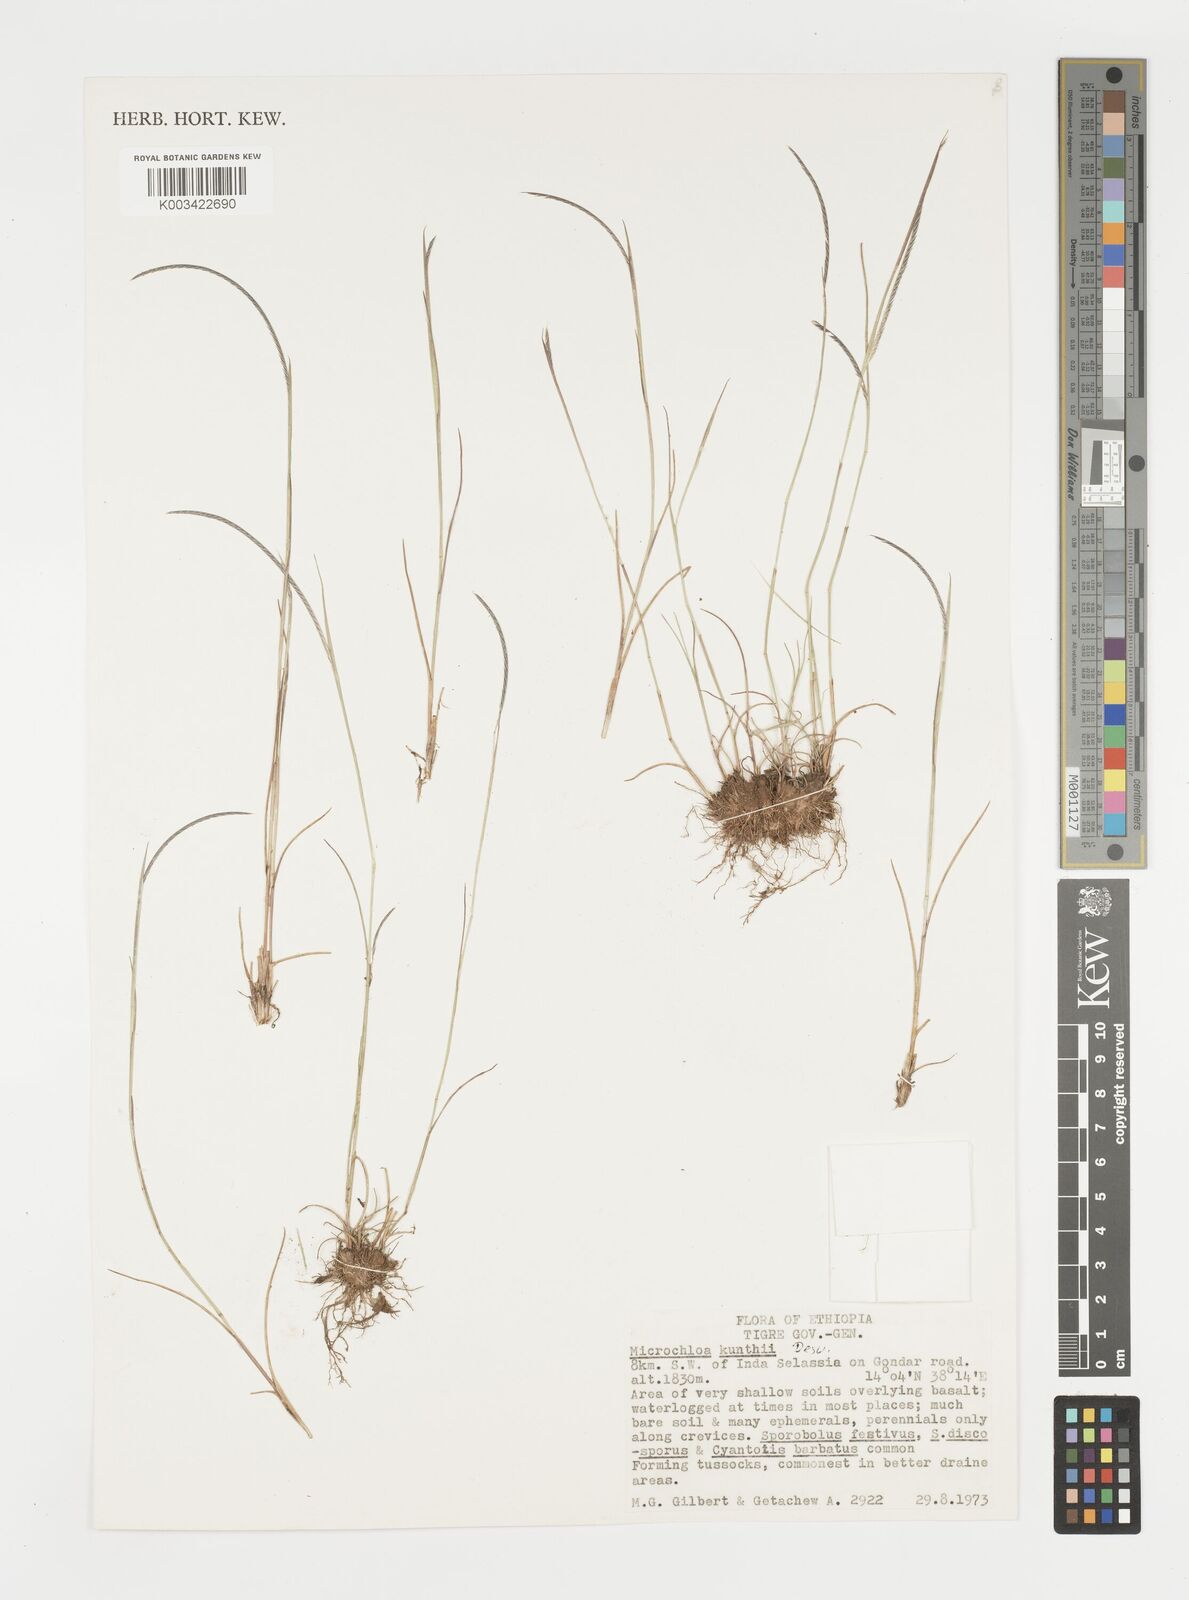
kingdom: Plantae
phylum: Tracheophyta
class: Liliopsida
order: Poales
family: Poaceae
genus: Microchloa
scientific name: Microchloa kunthii
